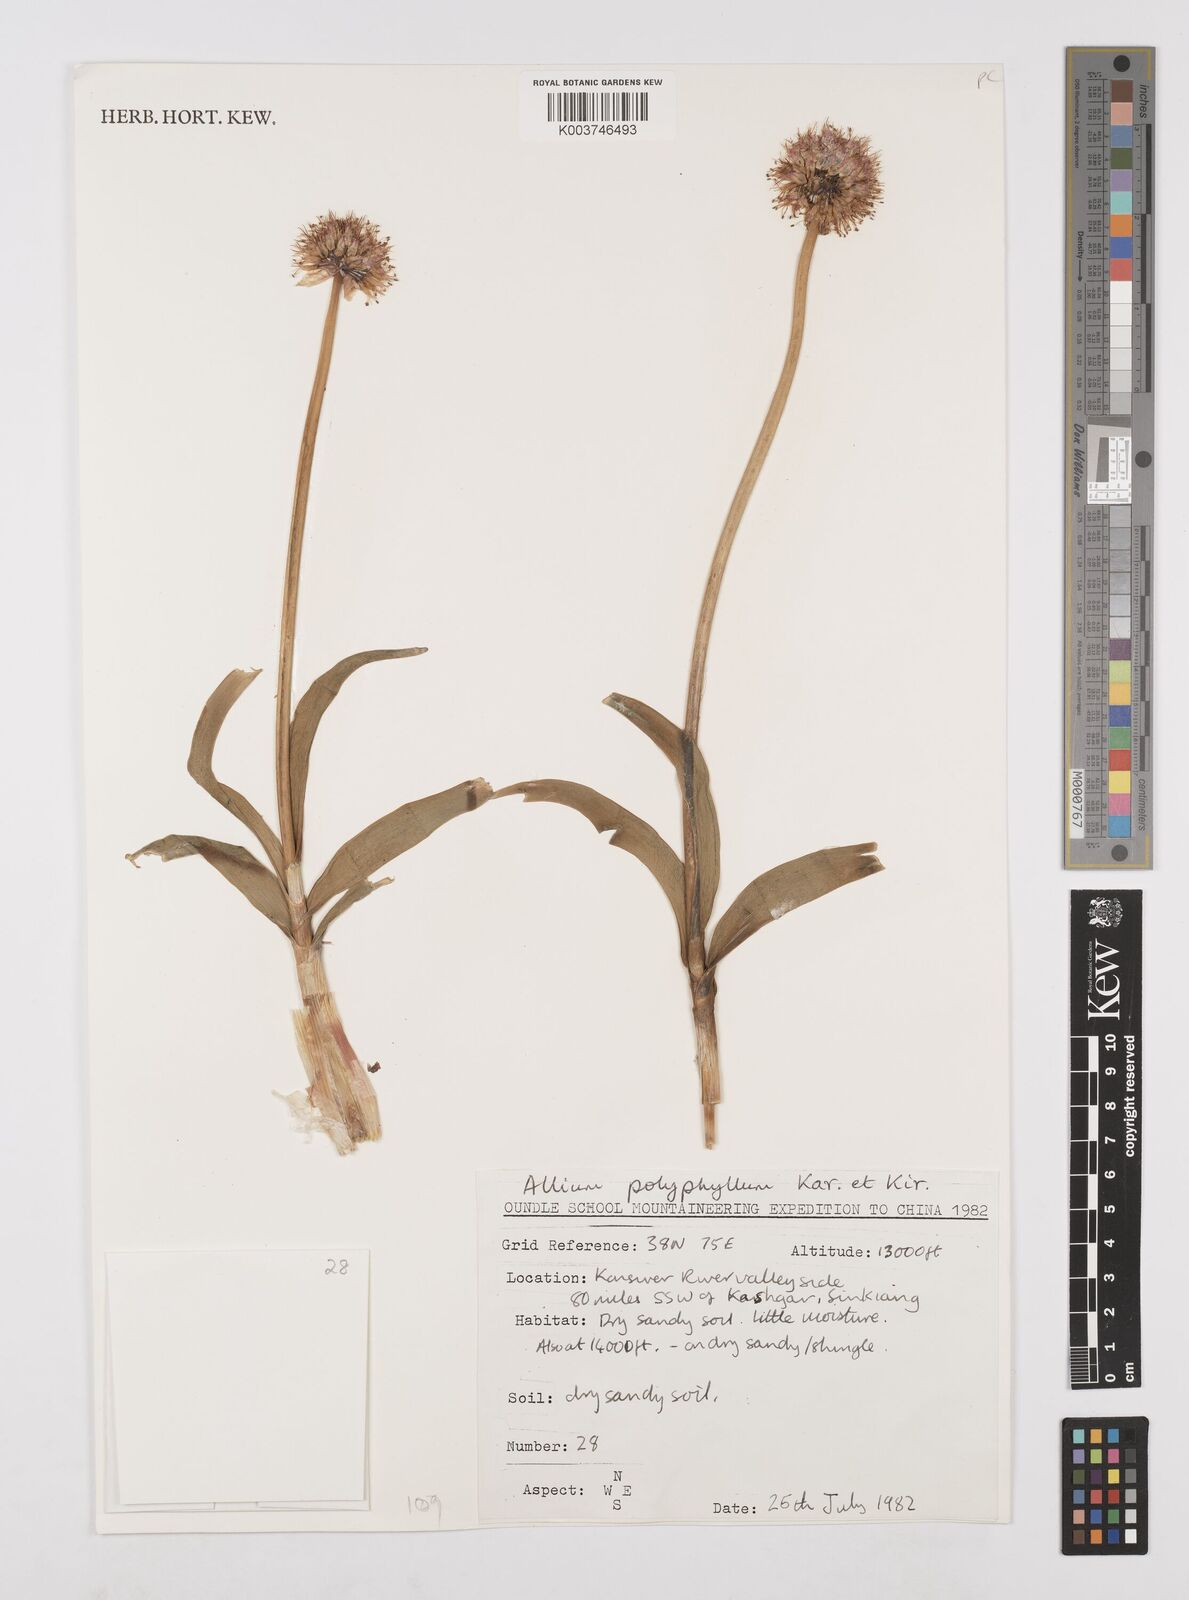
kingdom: Plantae
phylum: Tracheophyta
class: Liliopsida
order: Asparagales
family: Amaryllidaceae
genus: Allium
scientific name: Allium carolinianum
